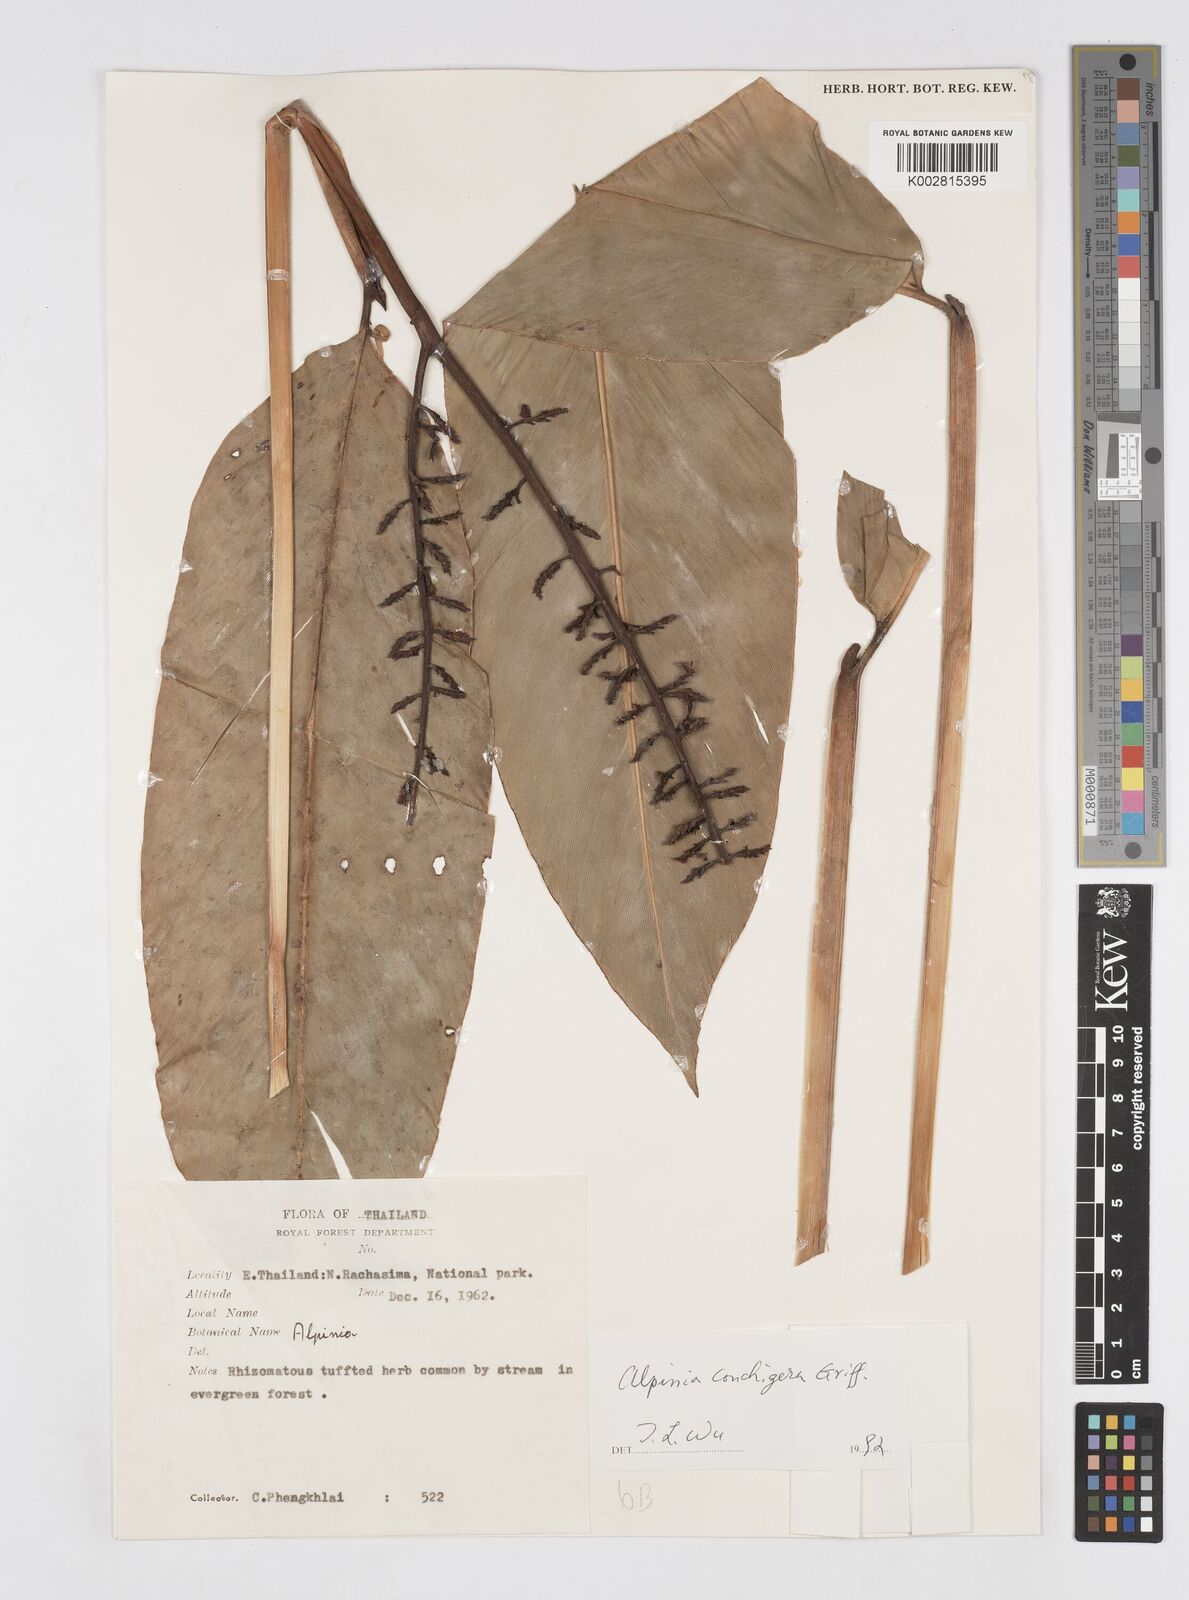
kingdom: Plantae
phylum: Tracheophyta
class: Liliopsida
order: Zingiberales
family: Zingiberaceae
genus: Alpinia
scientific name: Alpinia conchigera
